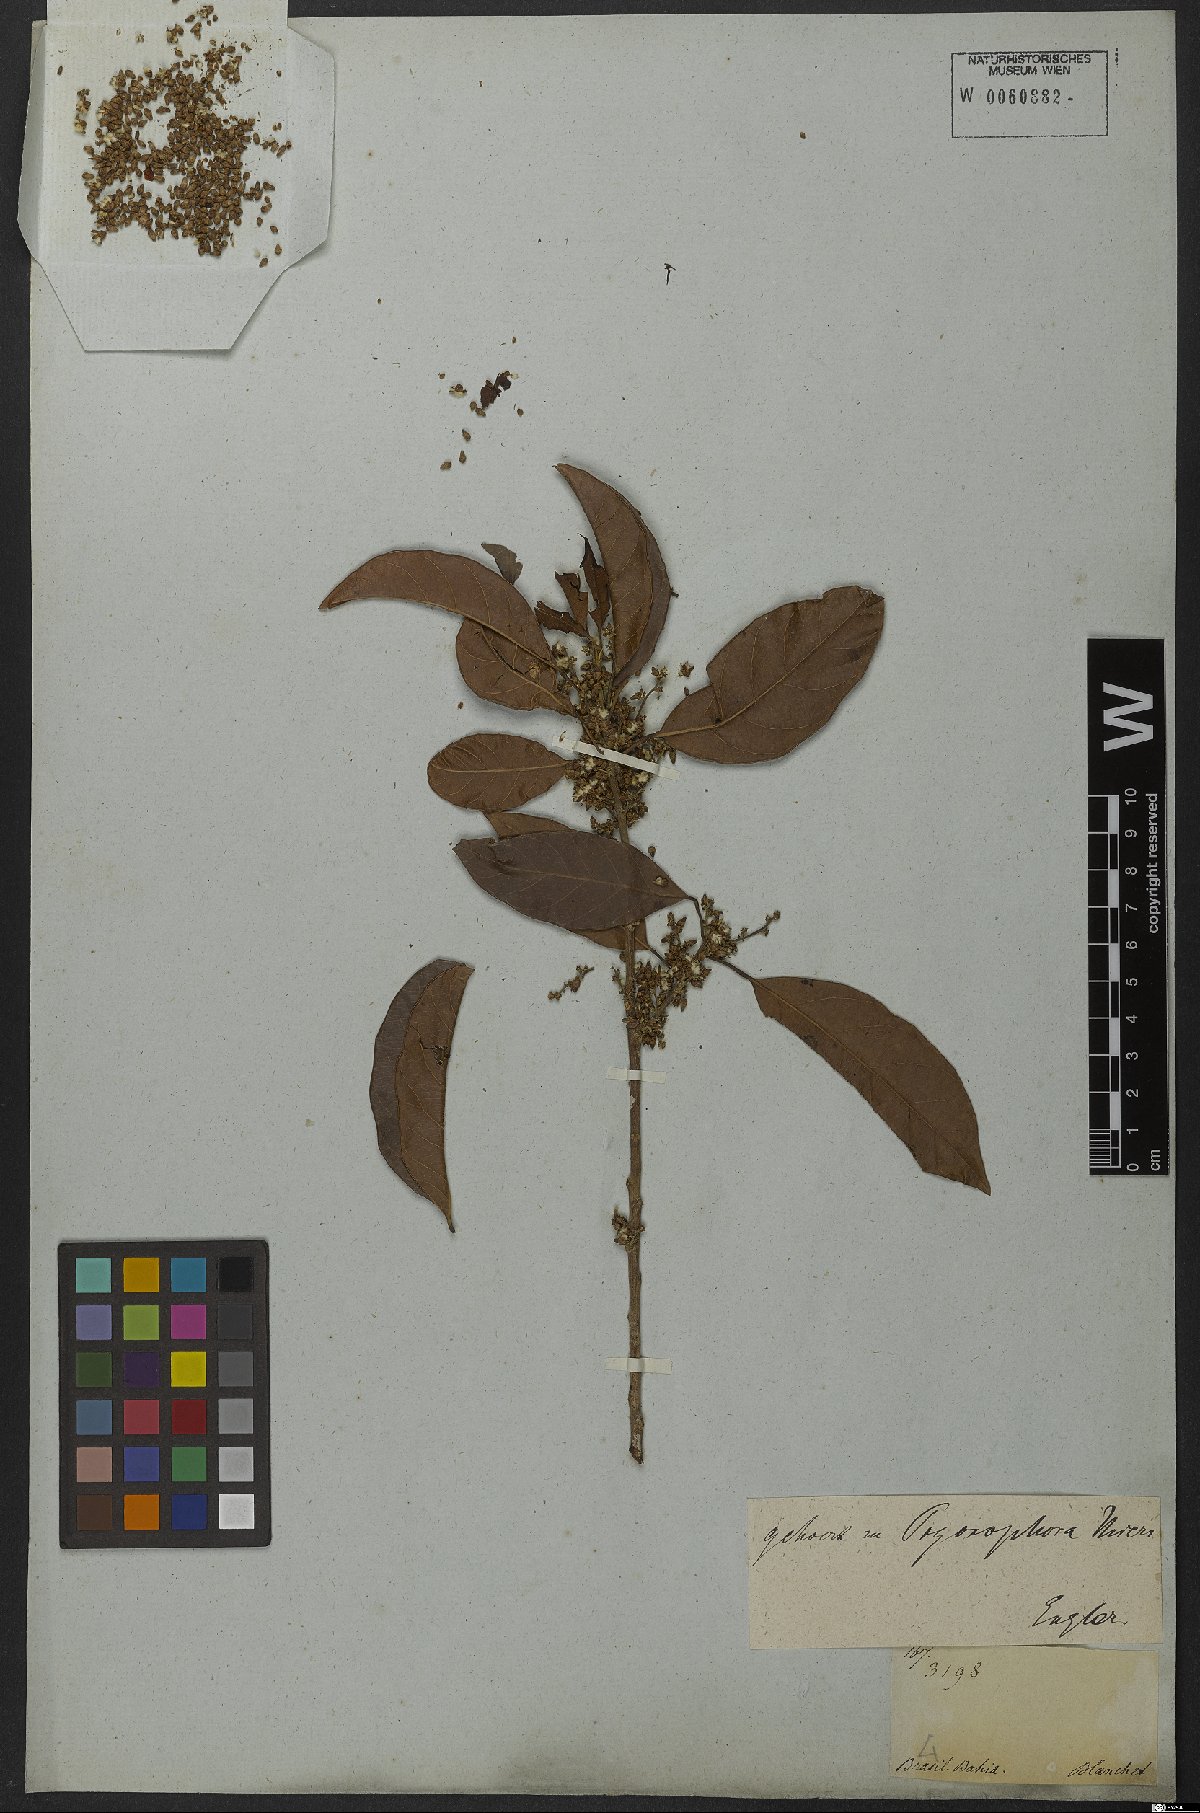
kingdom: Plantae
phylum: Tracheophyta
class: Magnoliopsida
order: Malpighiales
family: Peraceae
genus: Pogonophora
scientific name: Pogonophora schomburgkiana
